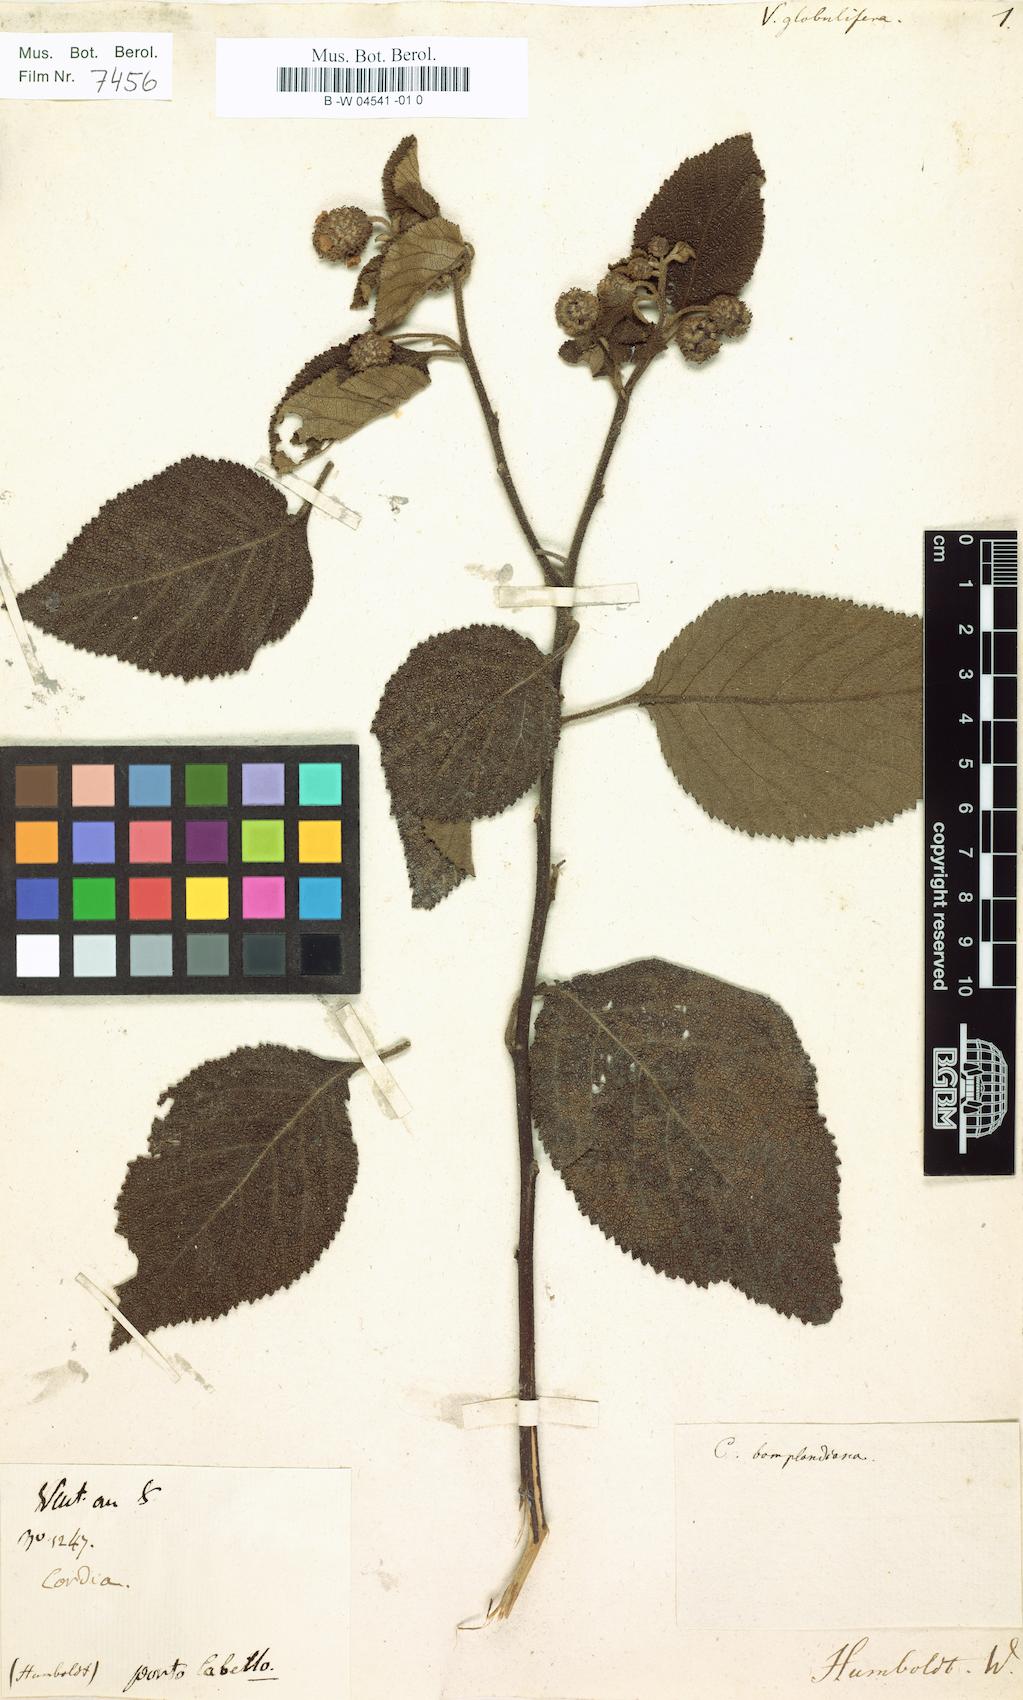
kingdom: Plantae
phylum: Tracheophyta
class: Magnoliopsida
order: Boraginales
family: Cordiaceae
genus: Varronia
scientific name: Varronia bonplandii
